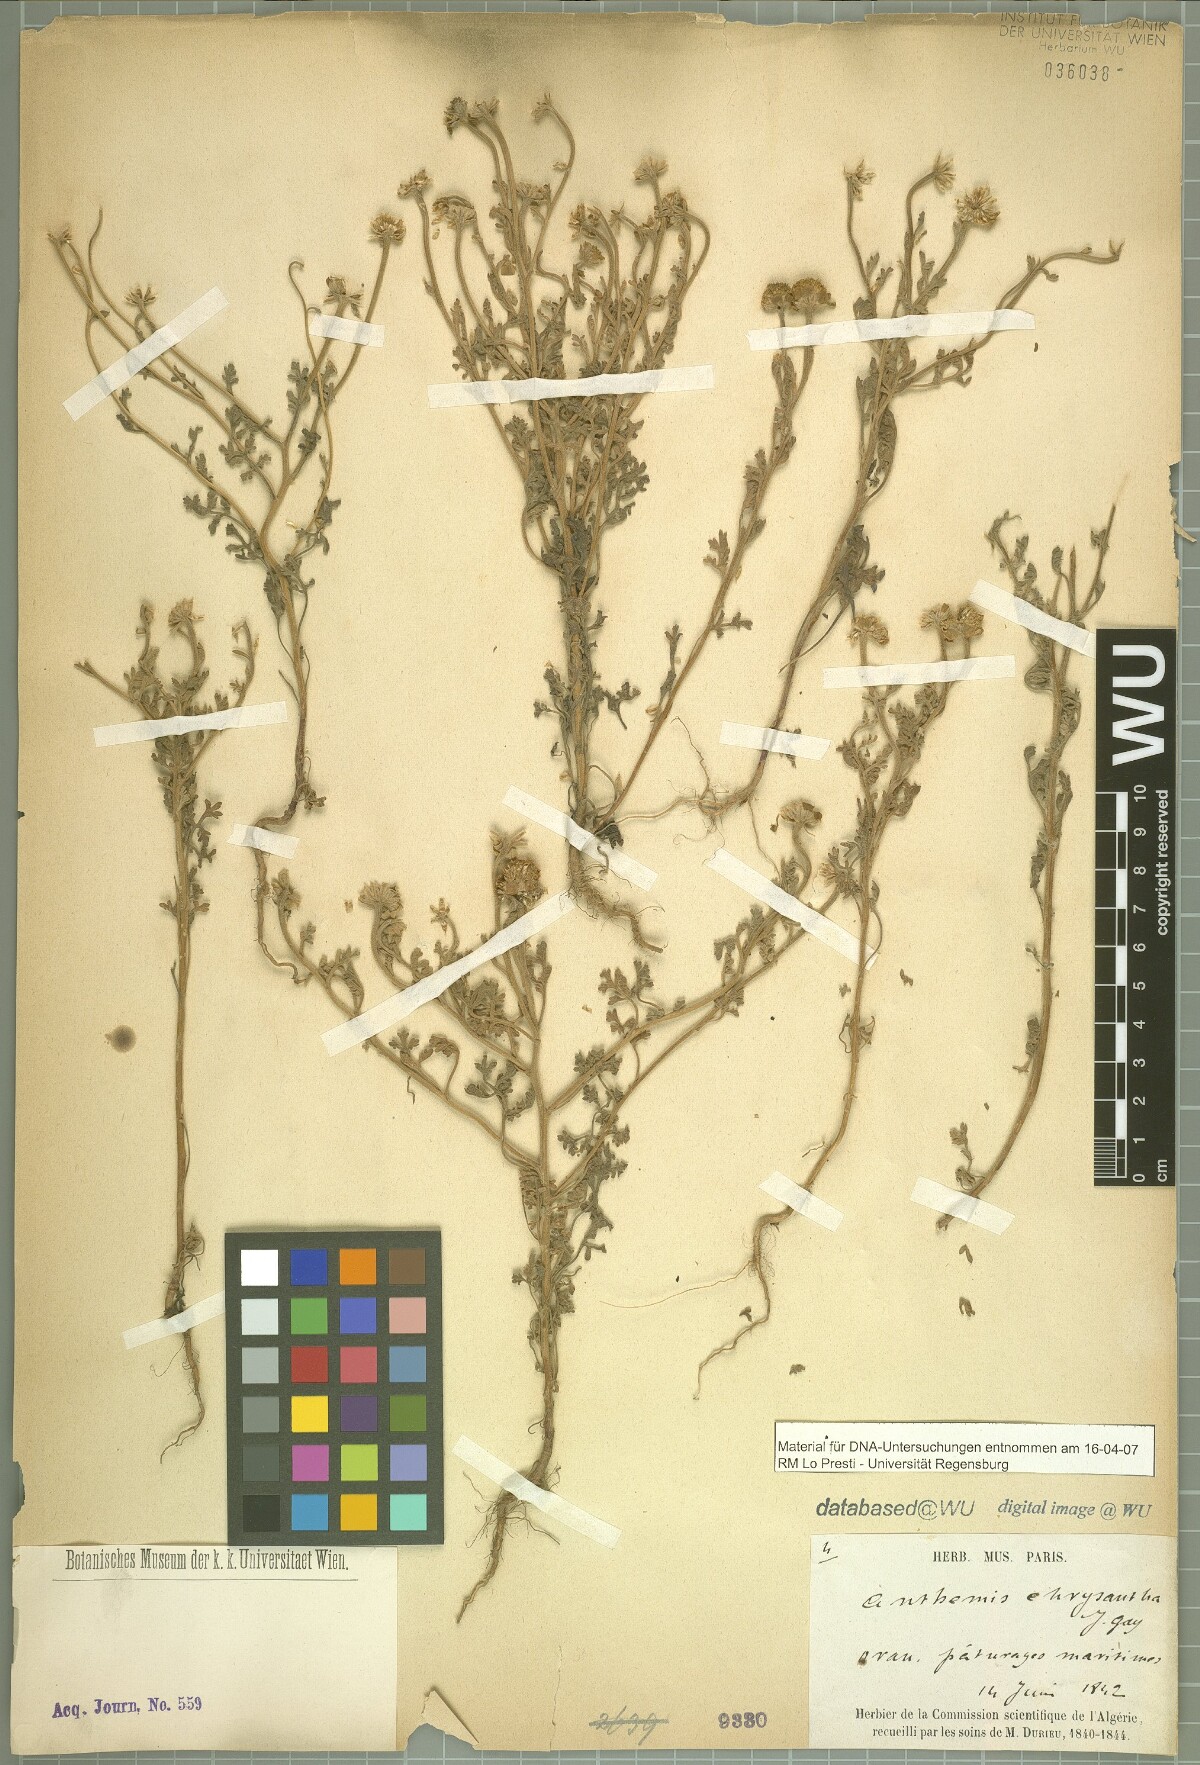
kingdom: Plantae
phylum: Tracheophyta
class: Magnoliopsida
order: Asterales
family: Asteraceae
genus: Anthemis
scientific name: Anthemis chrysantha
